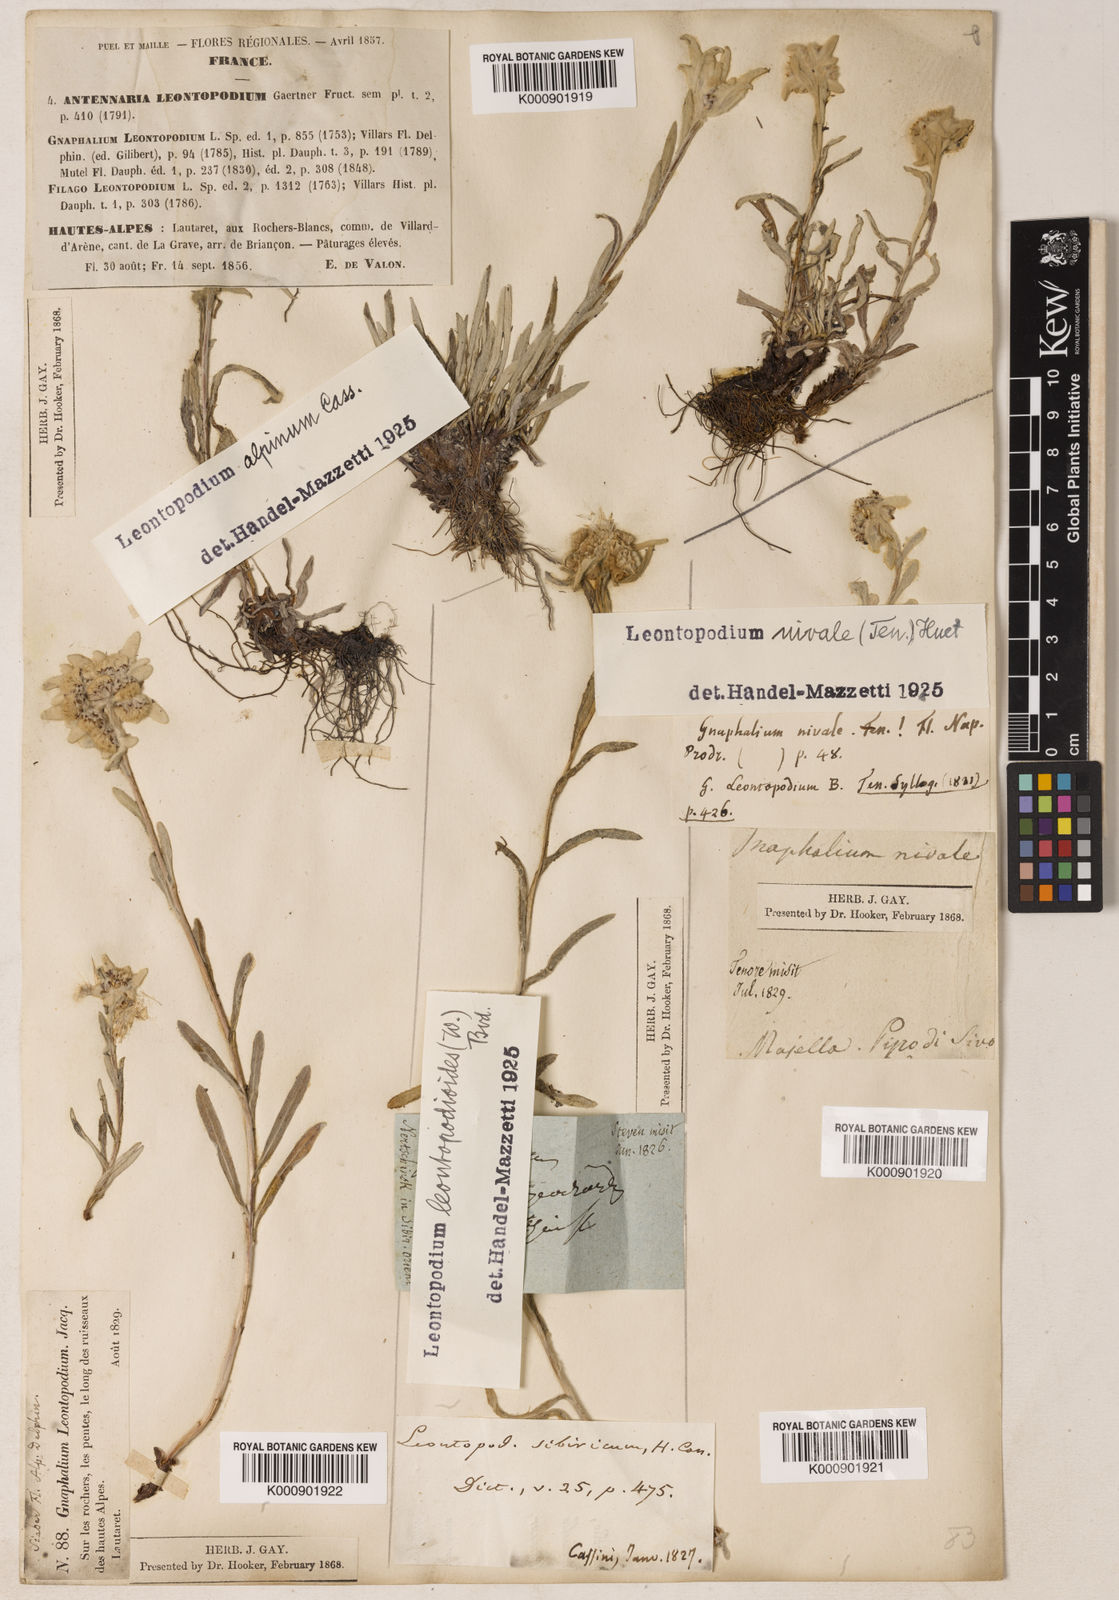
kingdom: Plantae
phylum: Tracheophyta
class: Magnoliopsida
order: Asterales
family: Asteraceae
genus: Leontopodium
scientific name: Leontopodium nivale
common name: Edelweiss
